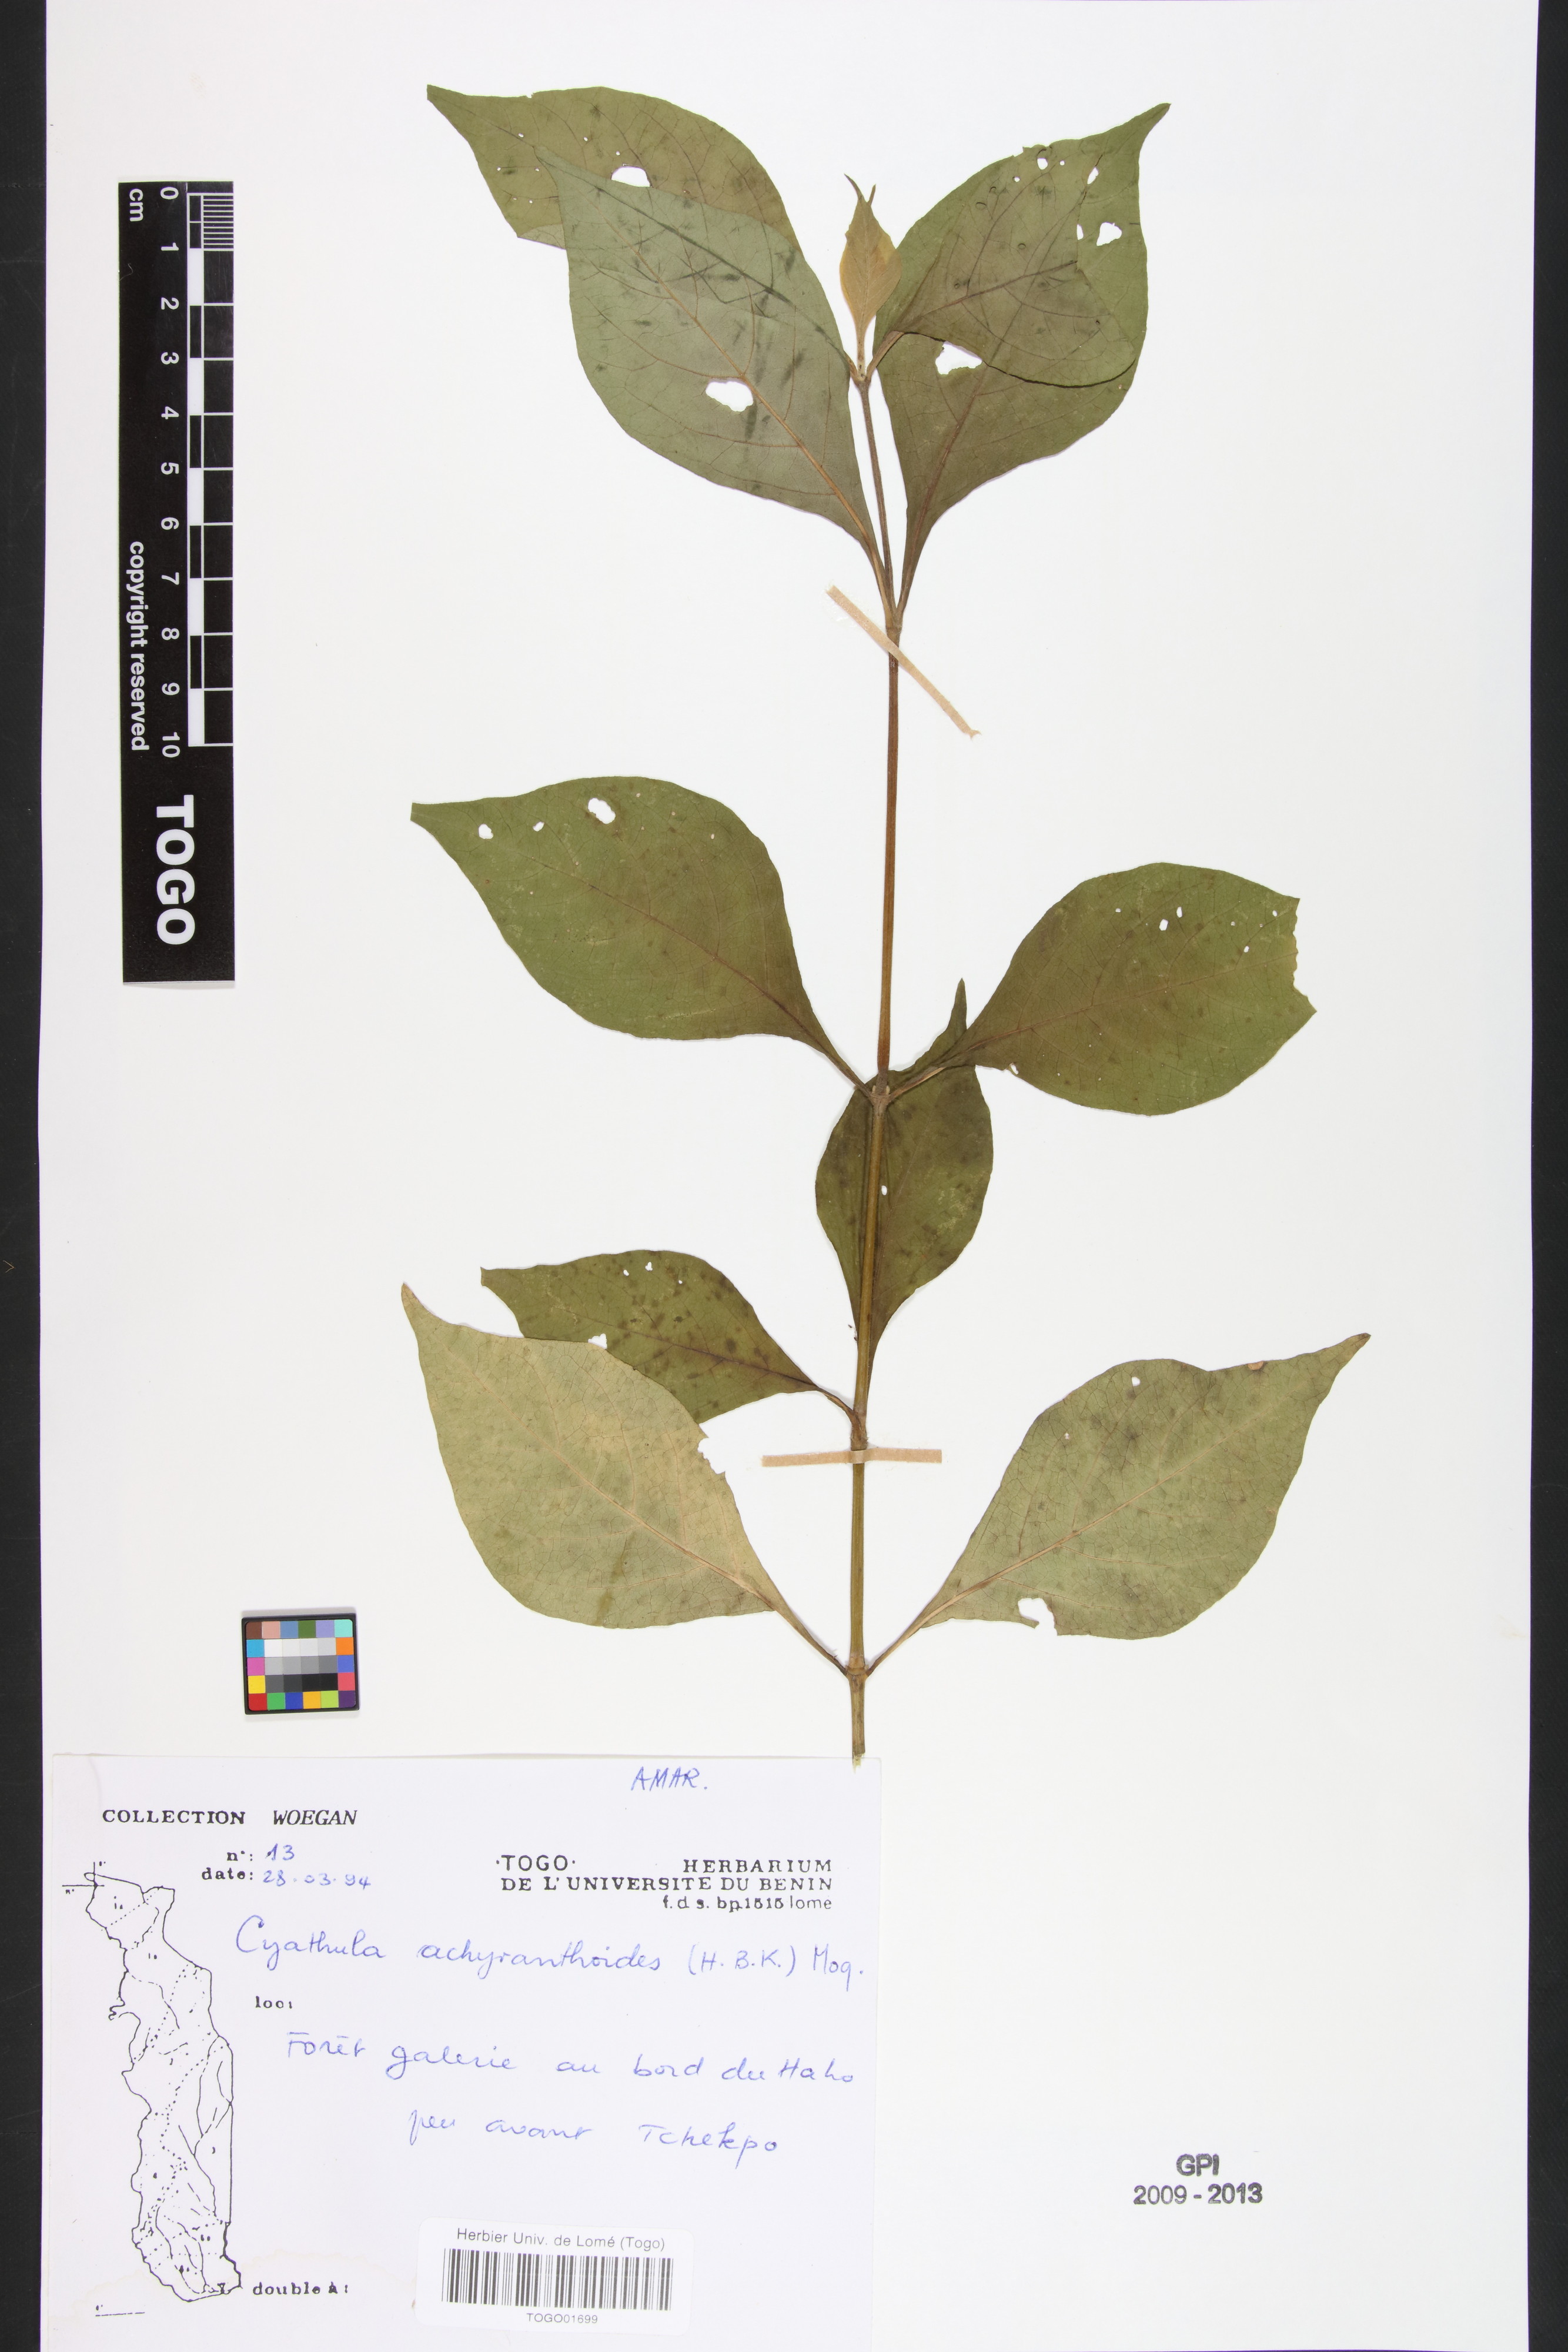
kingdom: Plantae
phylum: Tracheophyta
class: Magnoliopsida
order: Caryophyllales
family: Amaranthaceae
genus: Cyathula
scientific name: Cyathula achyranthoides
